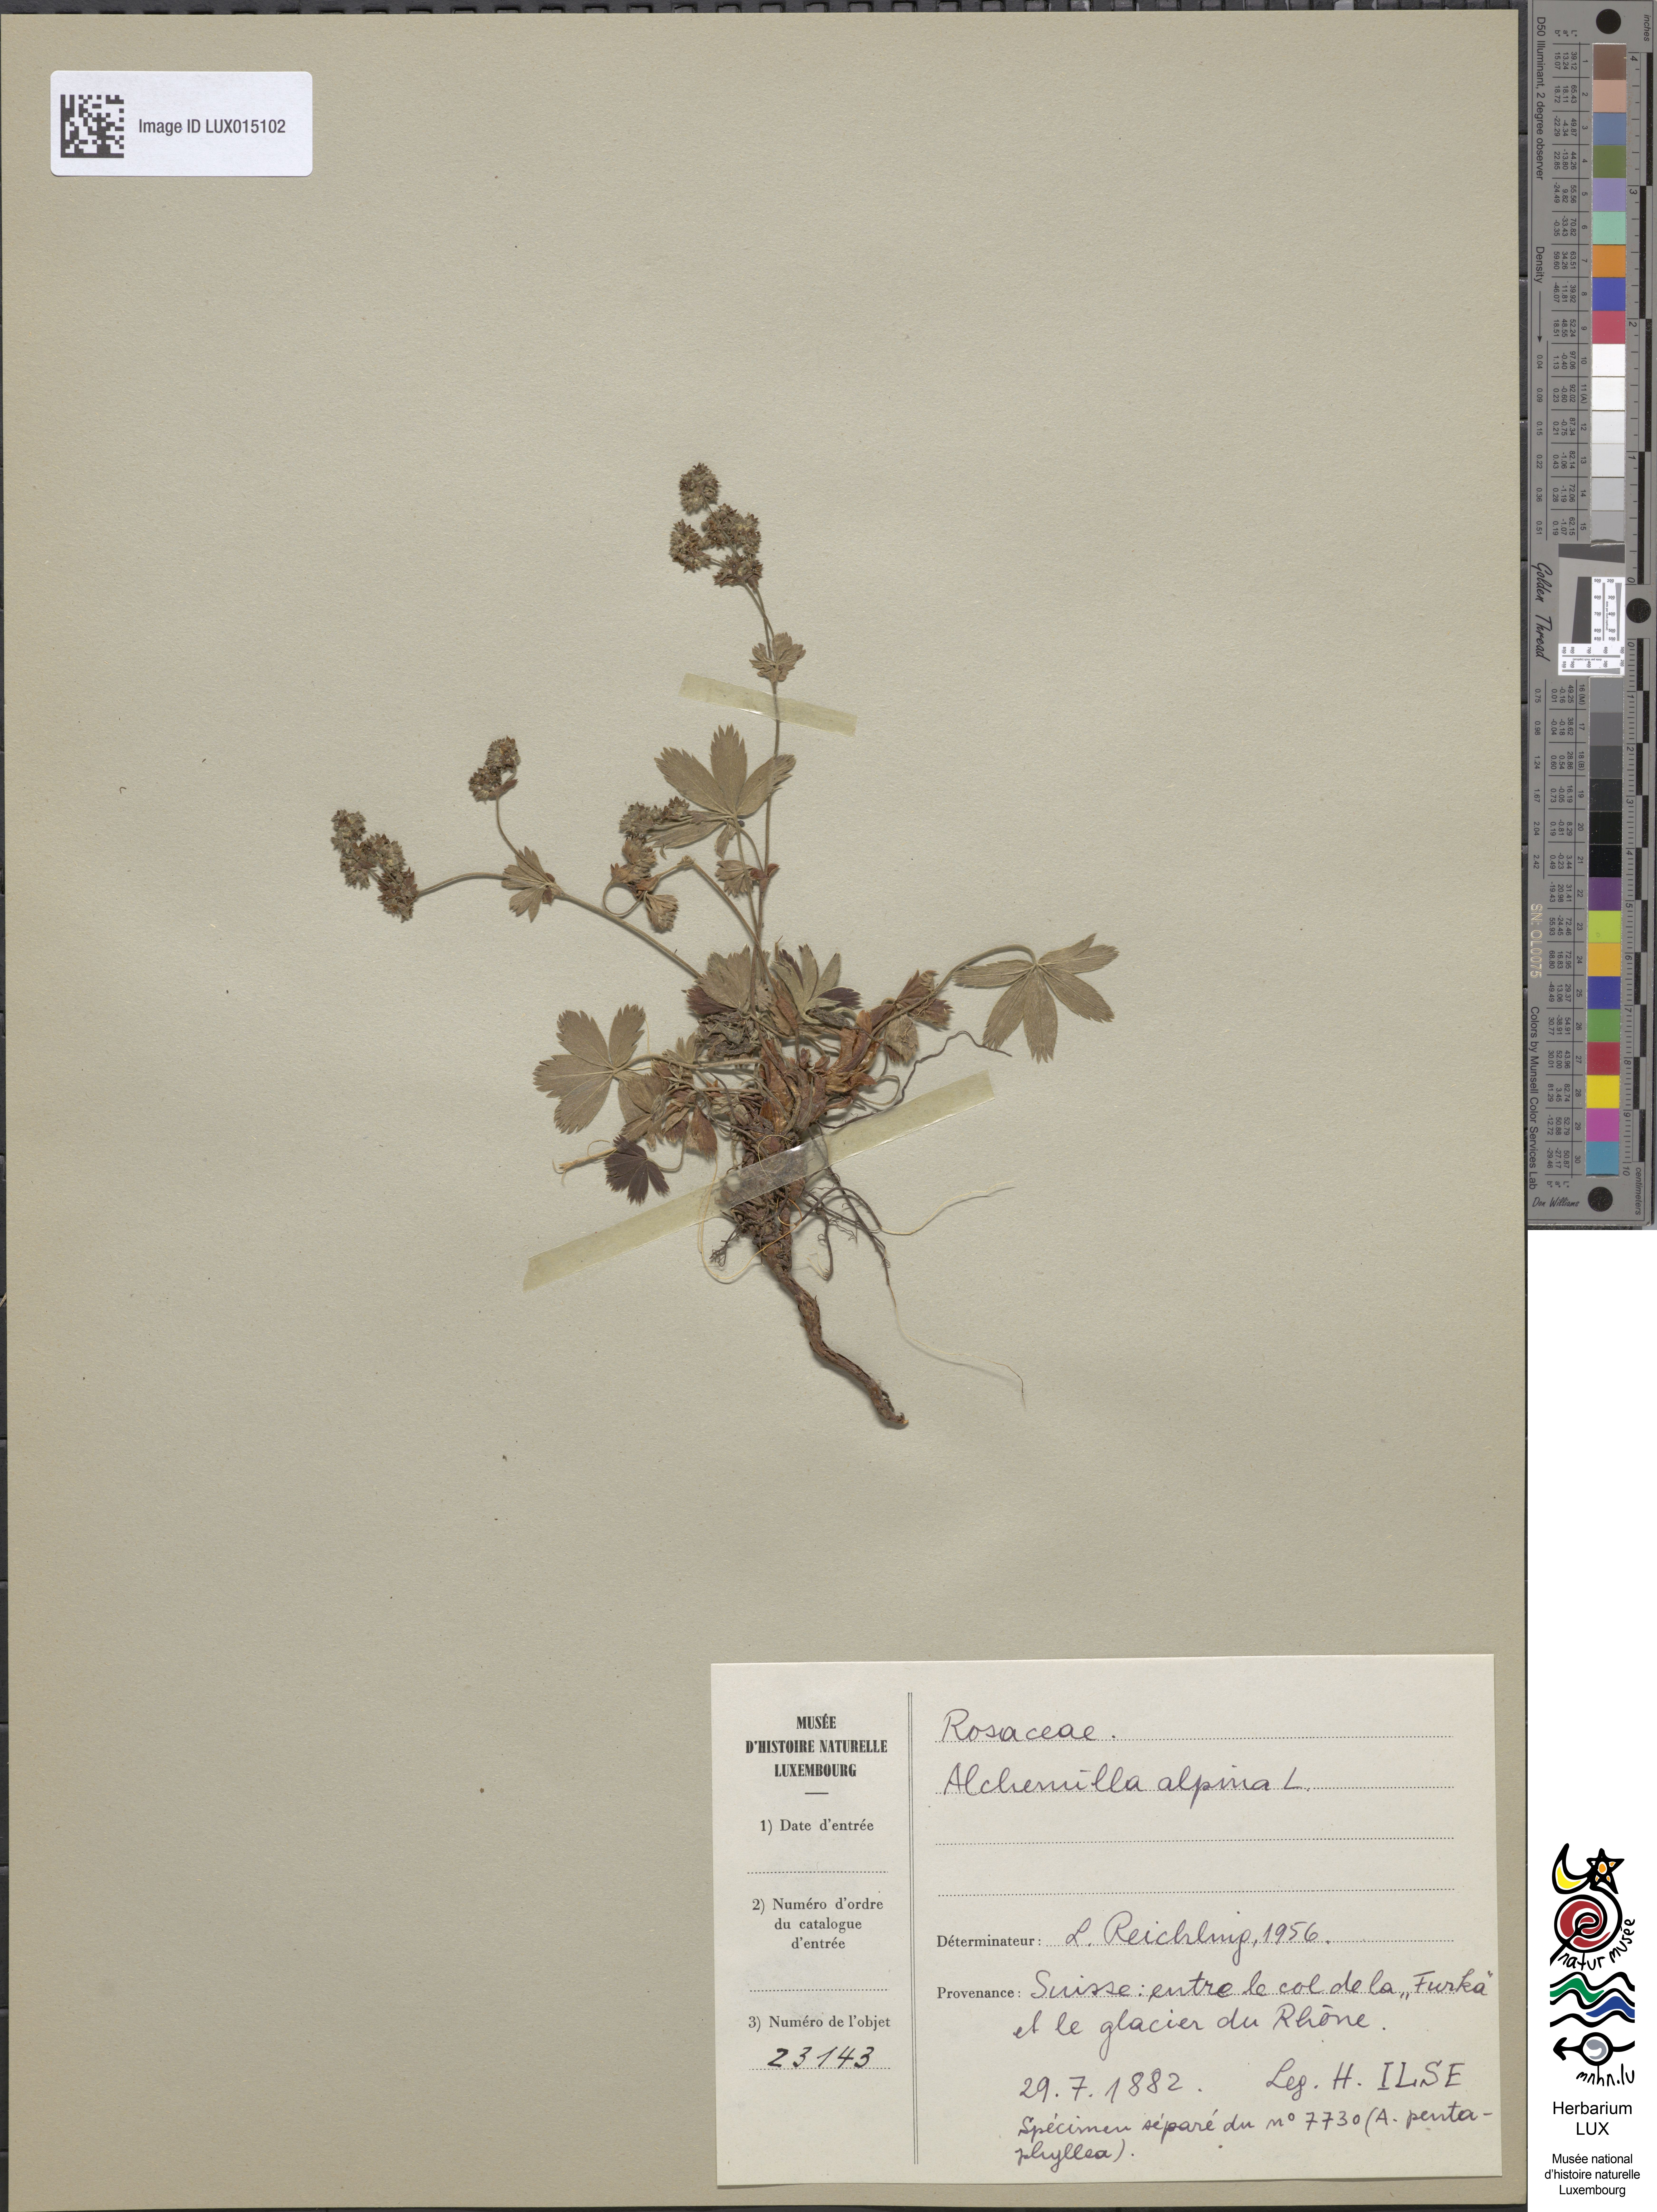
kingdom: Plantae
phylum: Tracheophyta
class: Magnoliopsida
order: Rosales
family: Rosaceae
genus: Alchemilla
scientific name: Alchemilla alpina
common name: Alpine lady's-mantle
